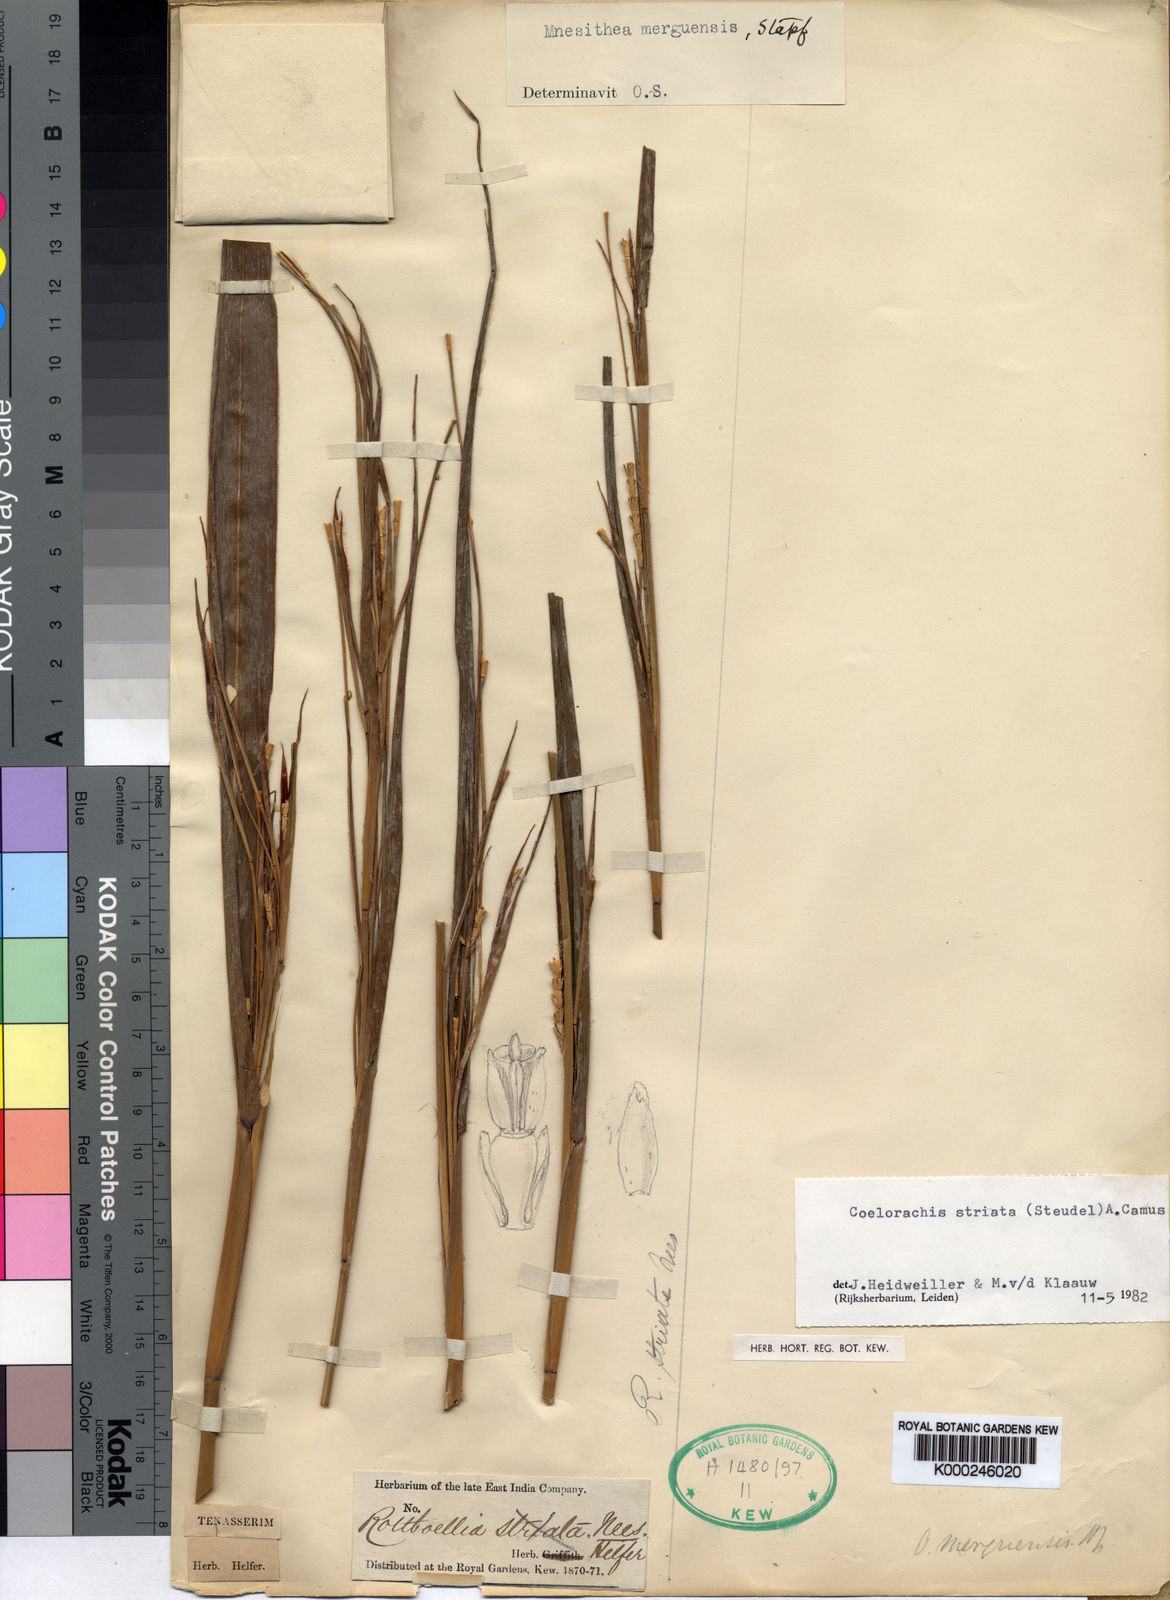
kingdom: Plantae
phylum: Tracheophyta
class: Liliopsida
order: Poales
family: Poaceae
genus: Rottboellia
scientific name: Rottboellia striata
